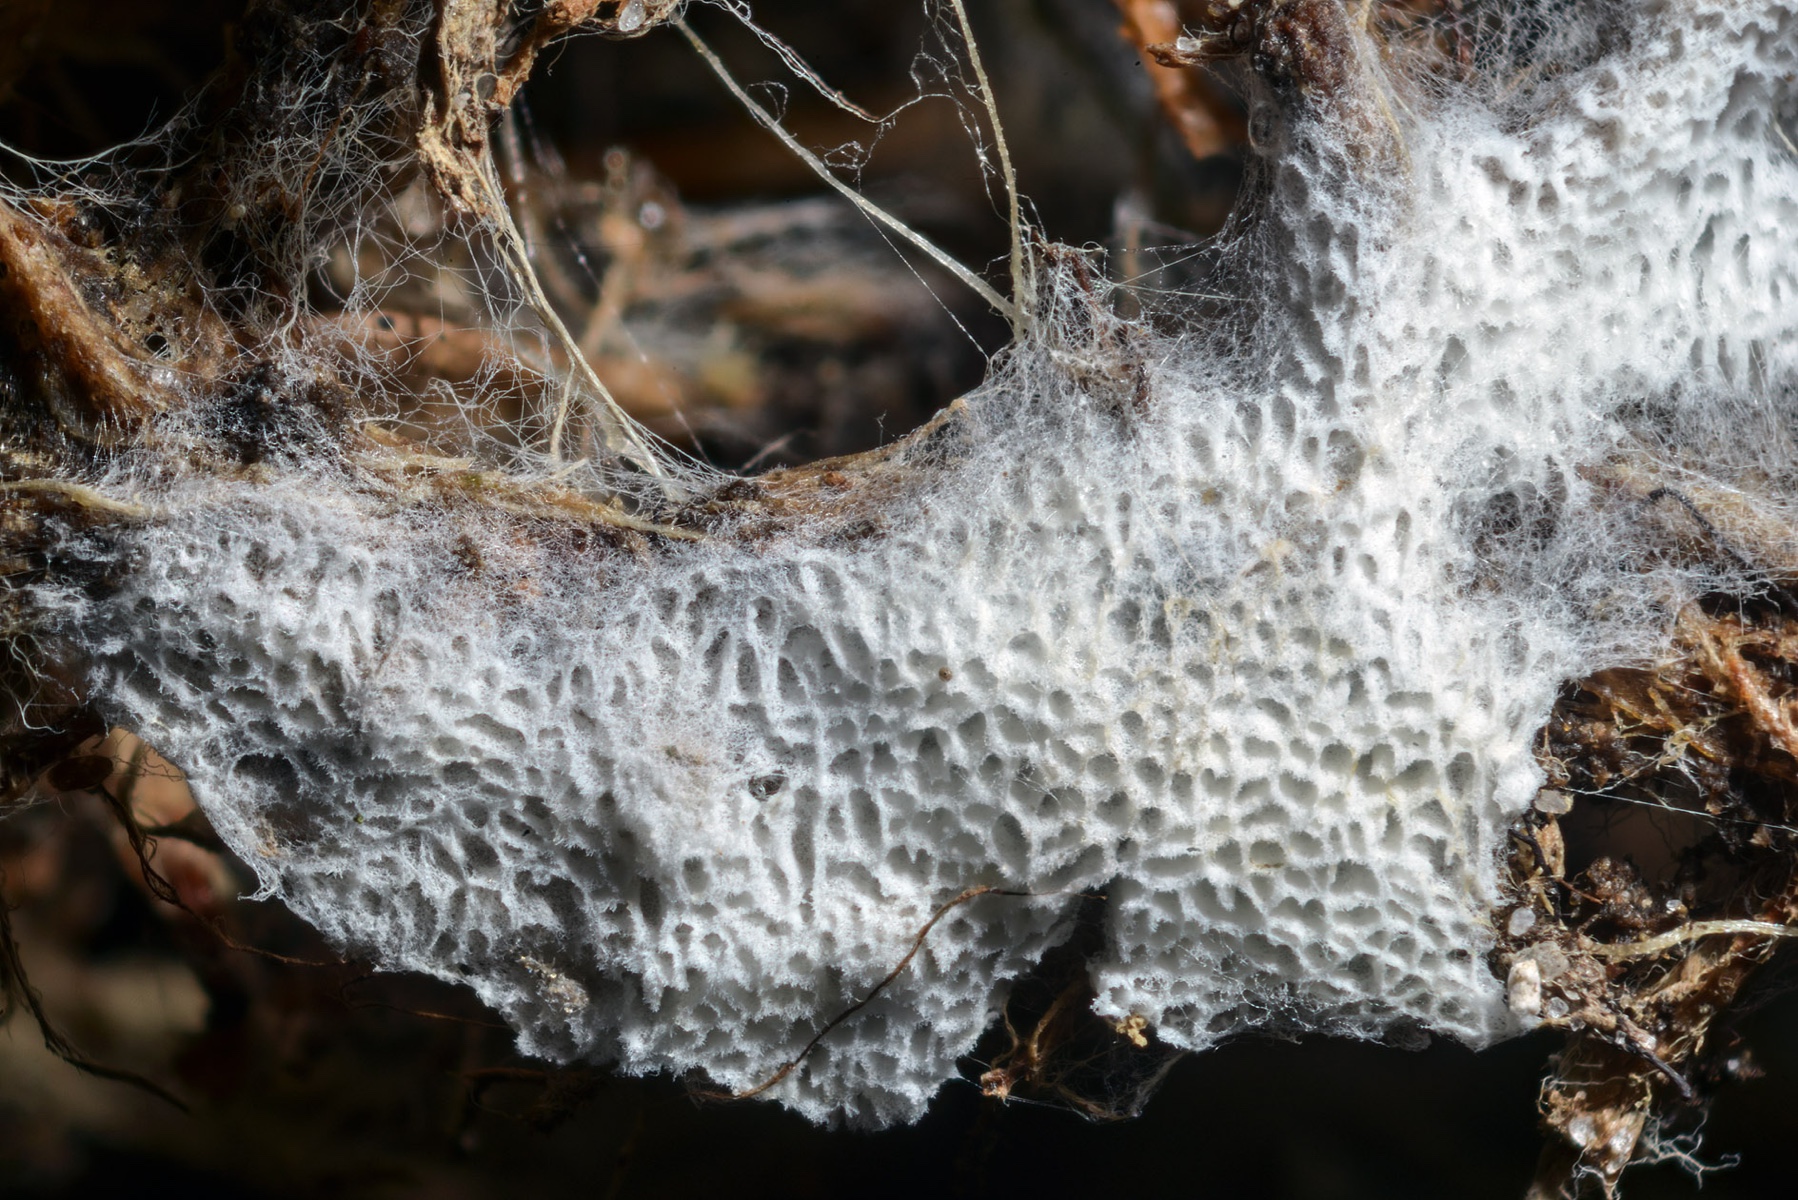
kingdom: Fungi
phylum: Basidiomycota
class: Agaricomycetes
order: Cantharellales
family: Hydnaceae
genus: Sistotrema
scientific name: Sistotrema albopallescens
